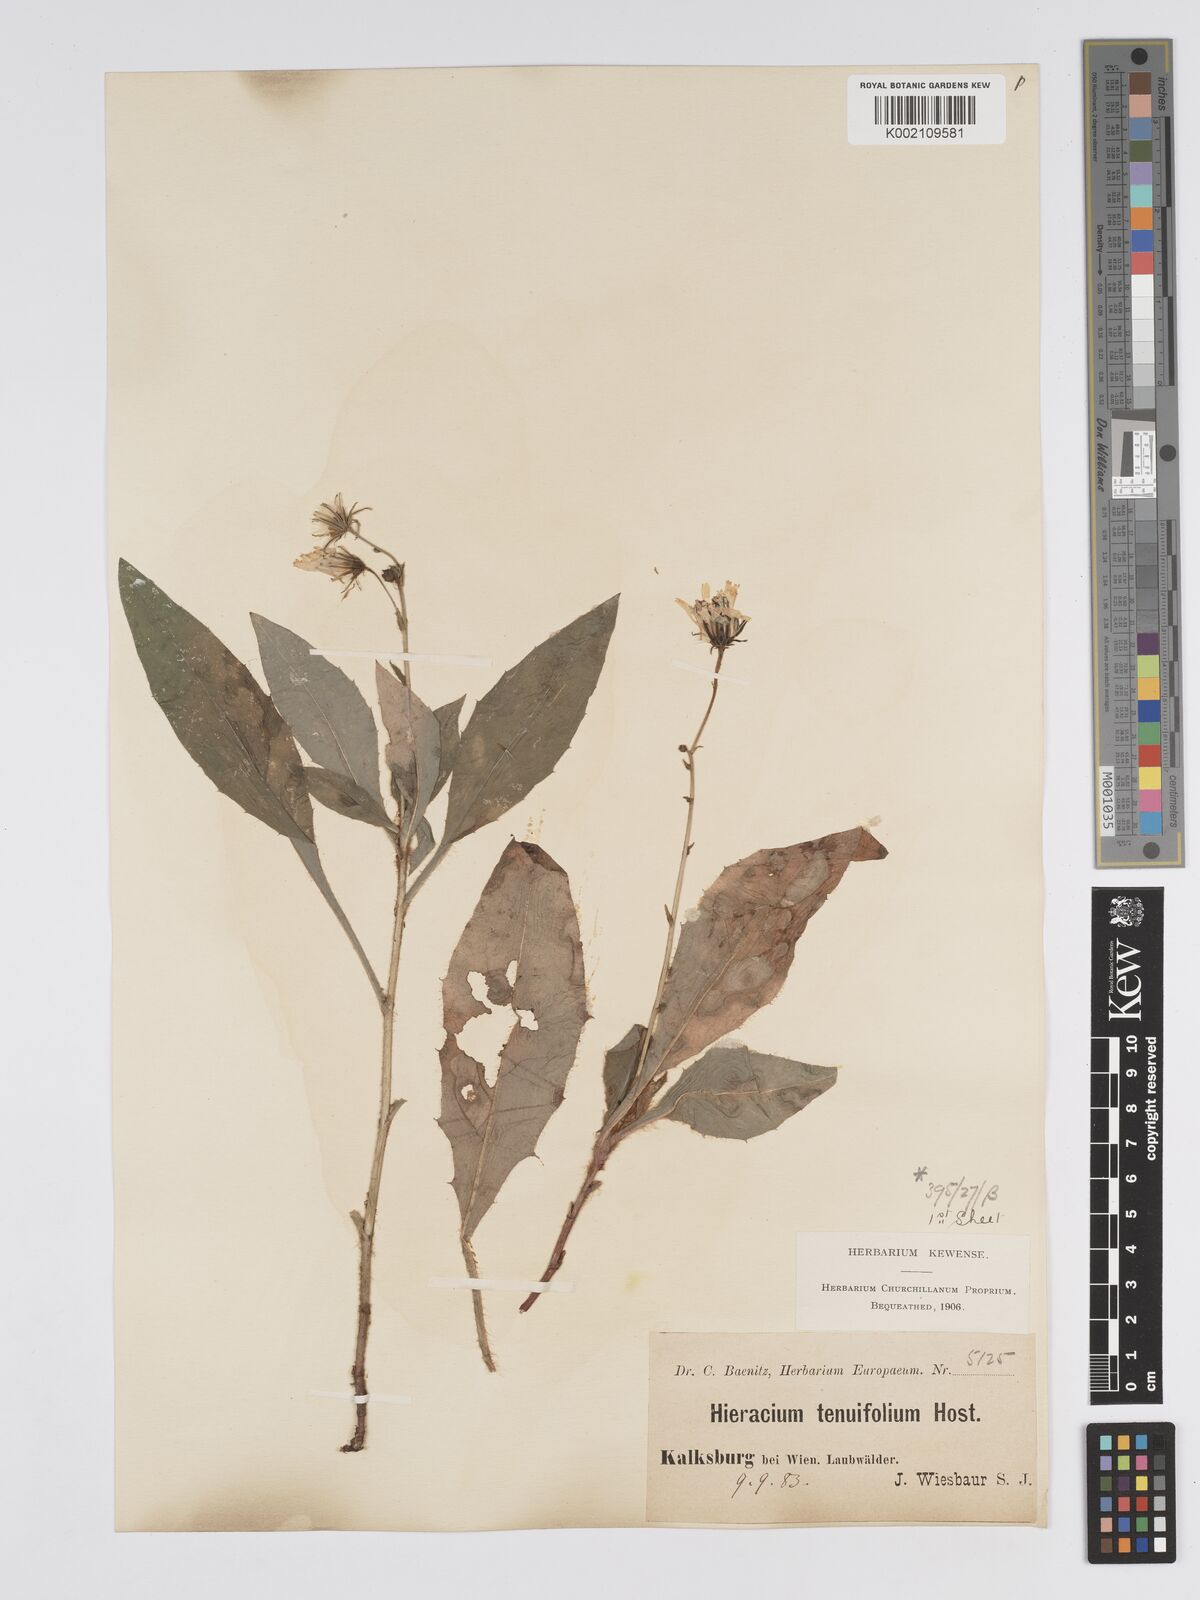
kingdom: Plantae
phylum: Tracheophyta
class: Magnoliopsida
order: Asterales
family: Asteraceae
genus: Hieracium
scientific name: Hieracium racemosum
